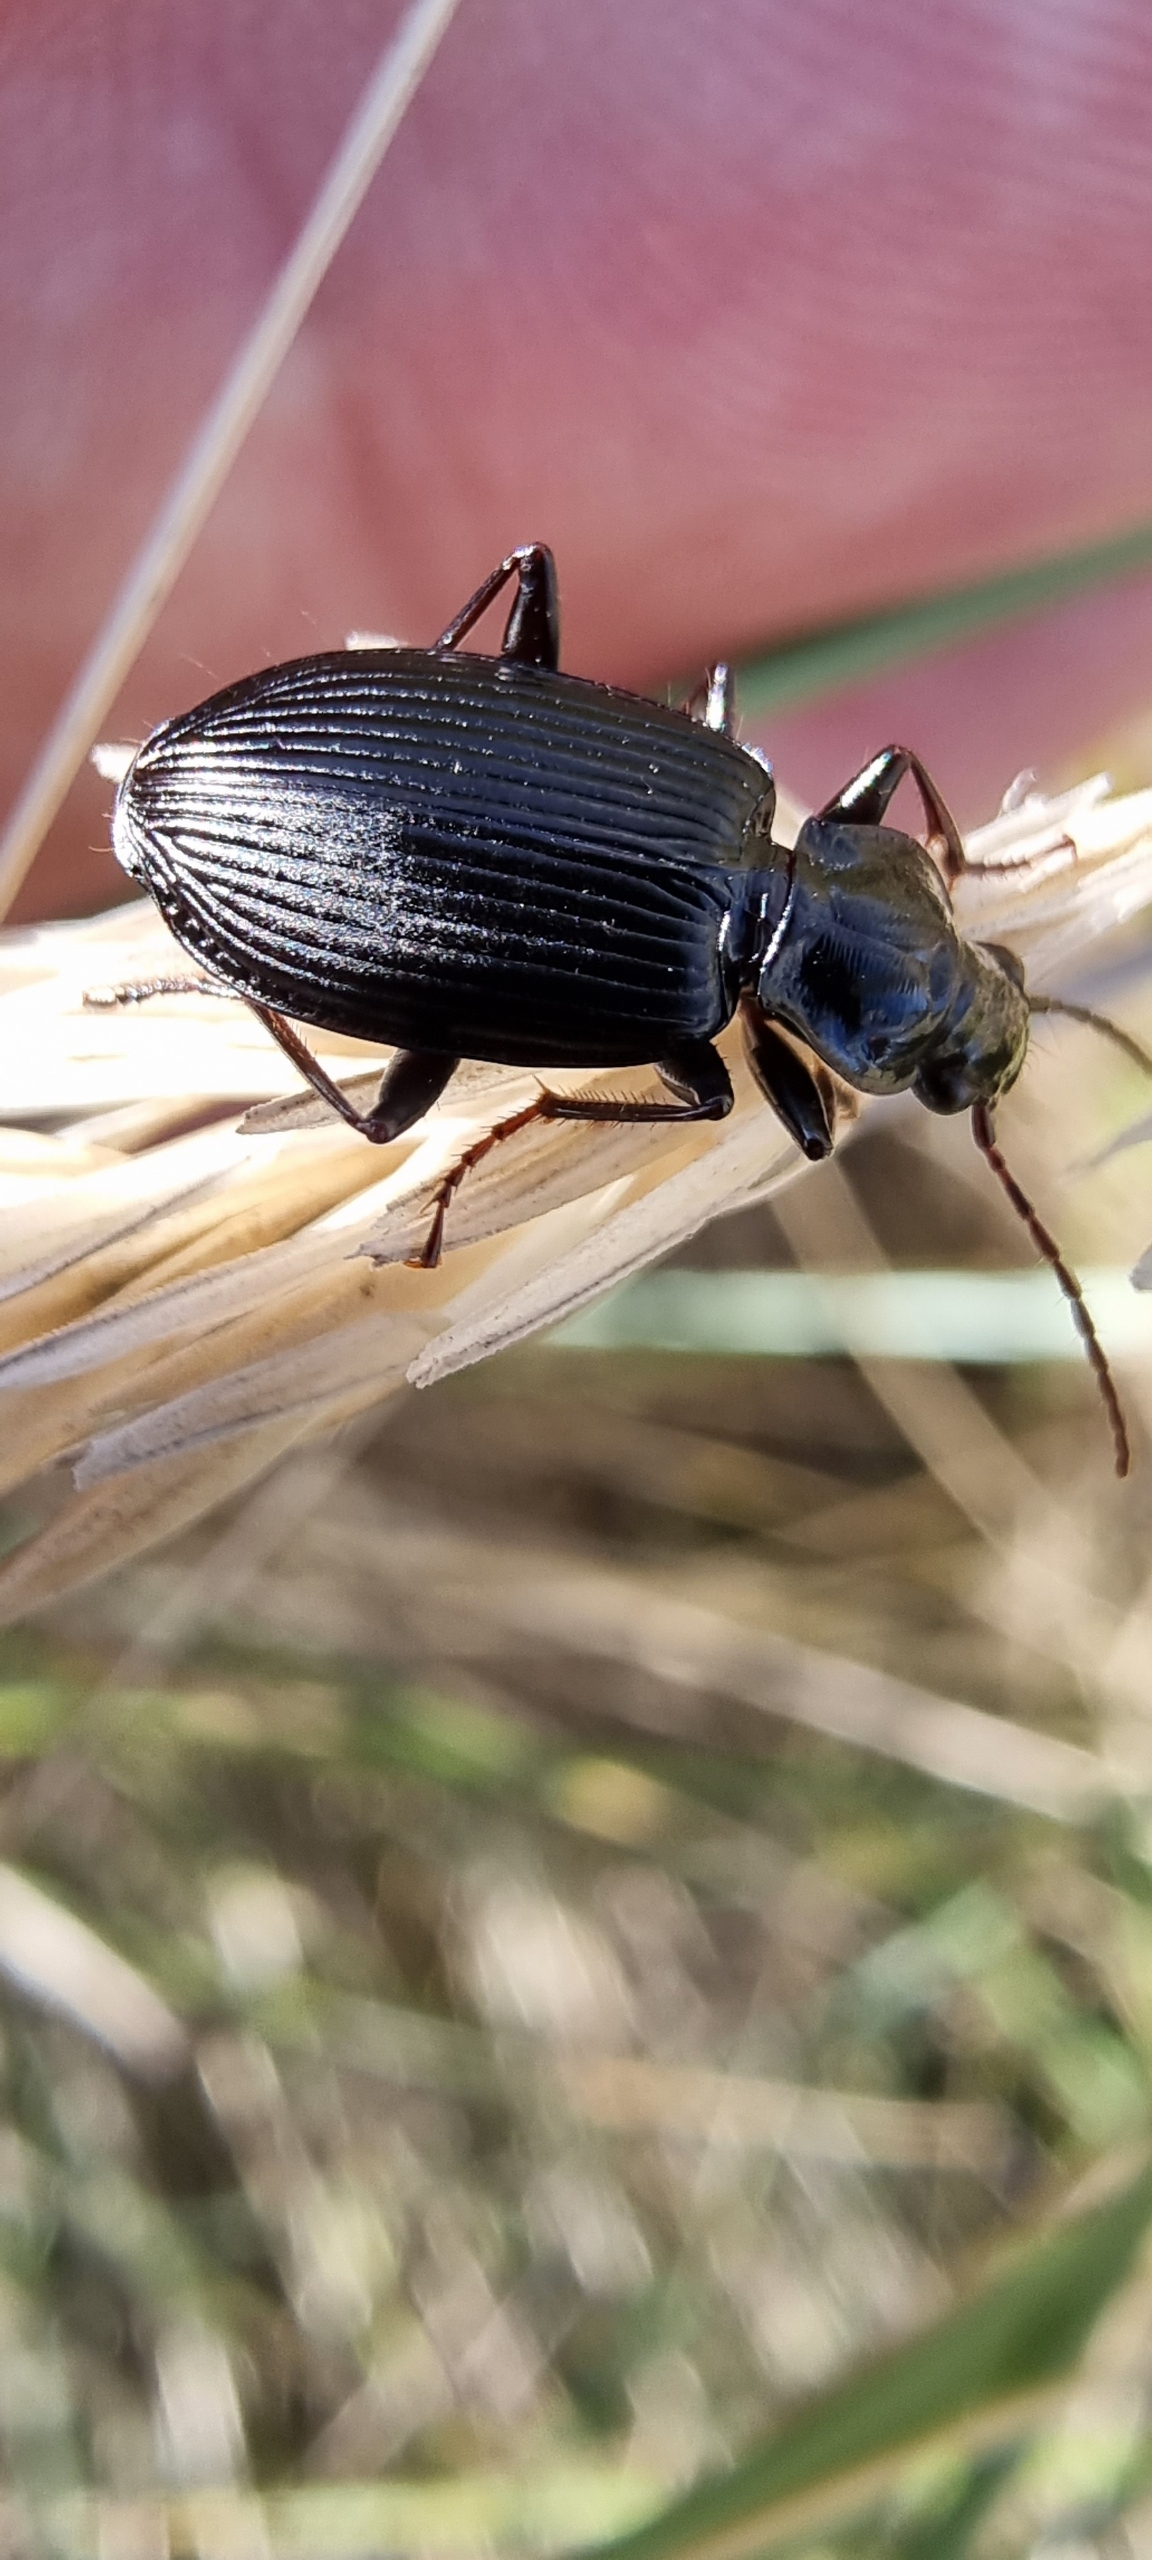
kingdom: Animalia
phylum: Arthropoda
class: Insecta
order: Coleoptera
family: Carabidae
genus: Platynus
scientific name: Platynus assimilis
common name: Skovkvikløber
